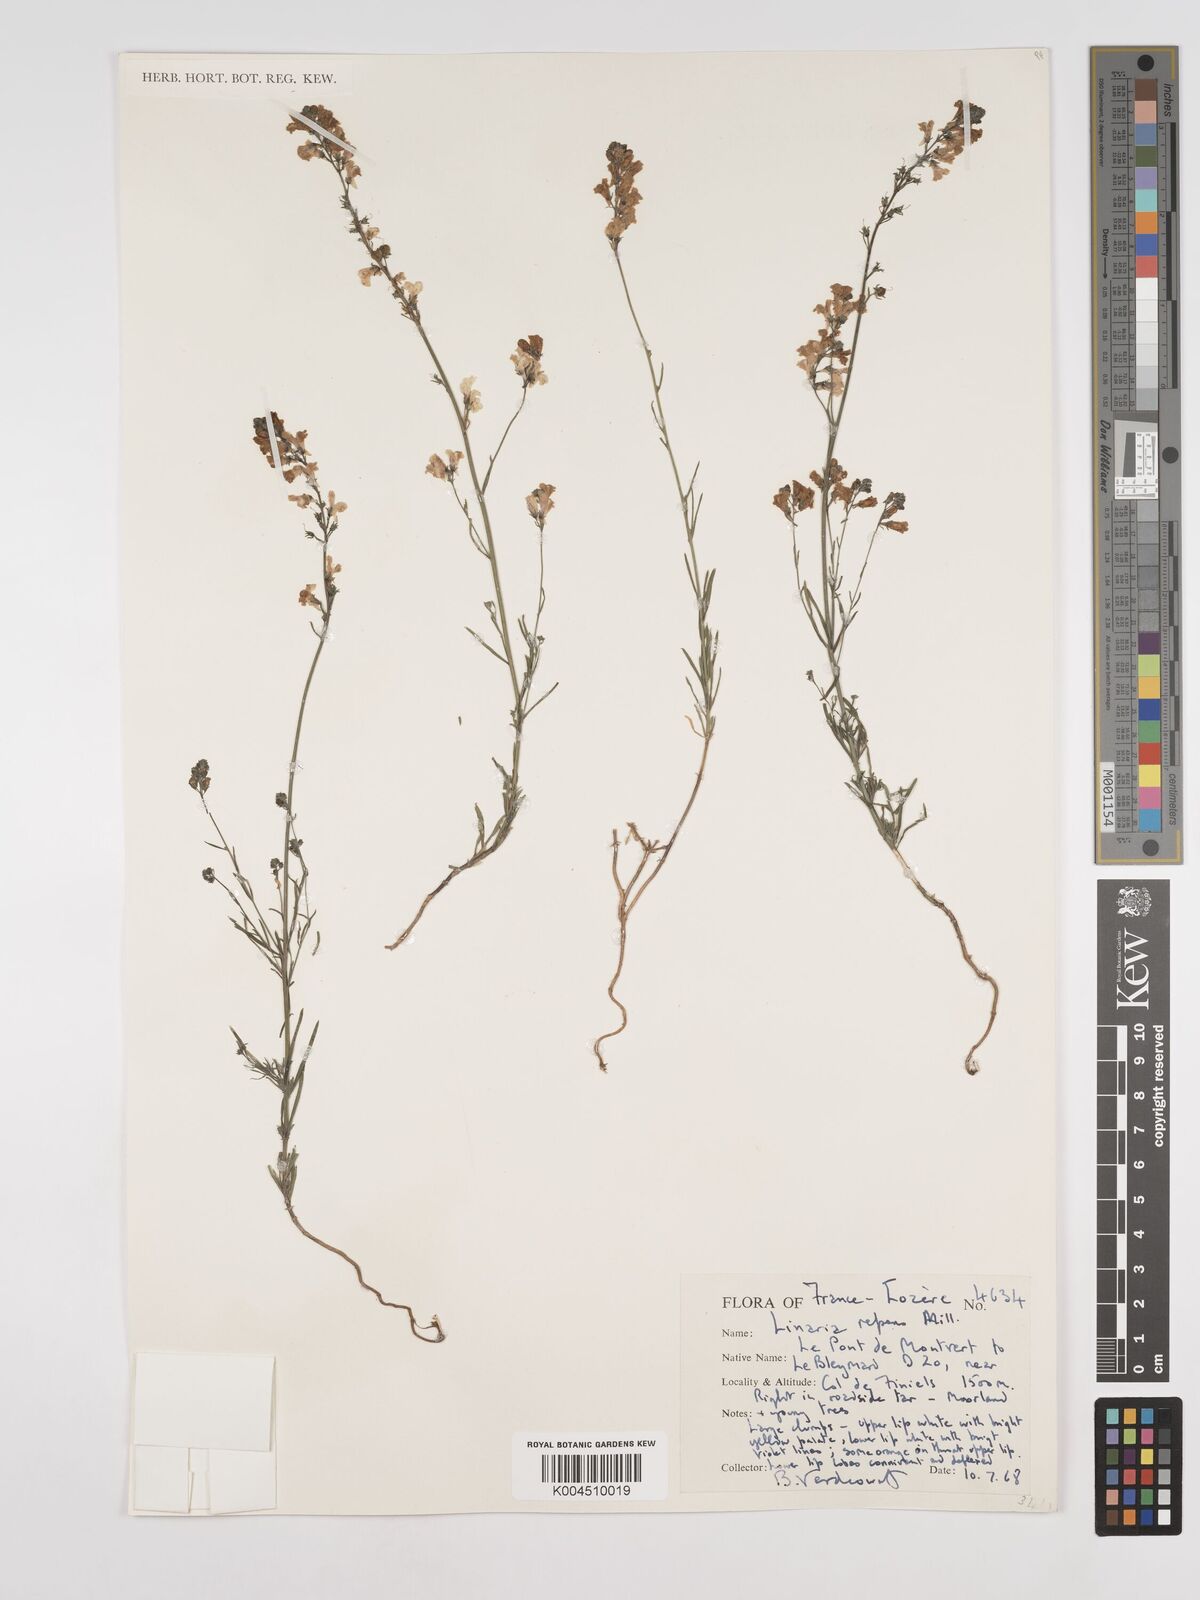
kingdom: Plantae
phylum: Tracheophyta
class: Magnoliopsida
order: Lamiales
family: Plantaginaceae
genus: Linaria
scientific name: Linaria repens
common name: Pale toadflax
